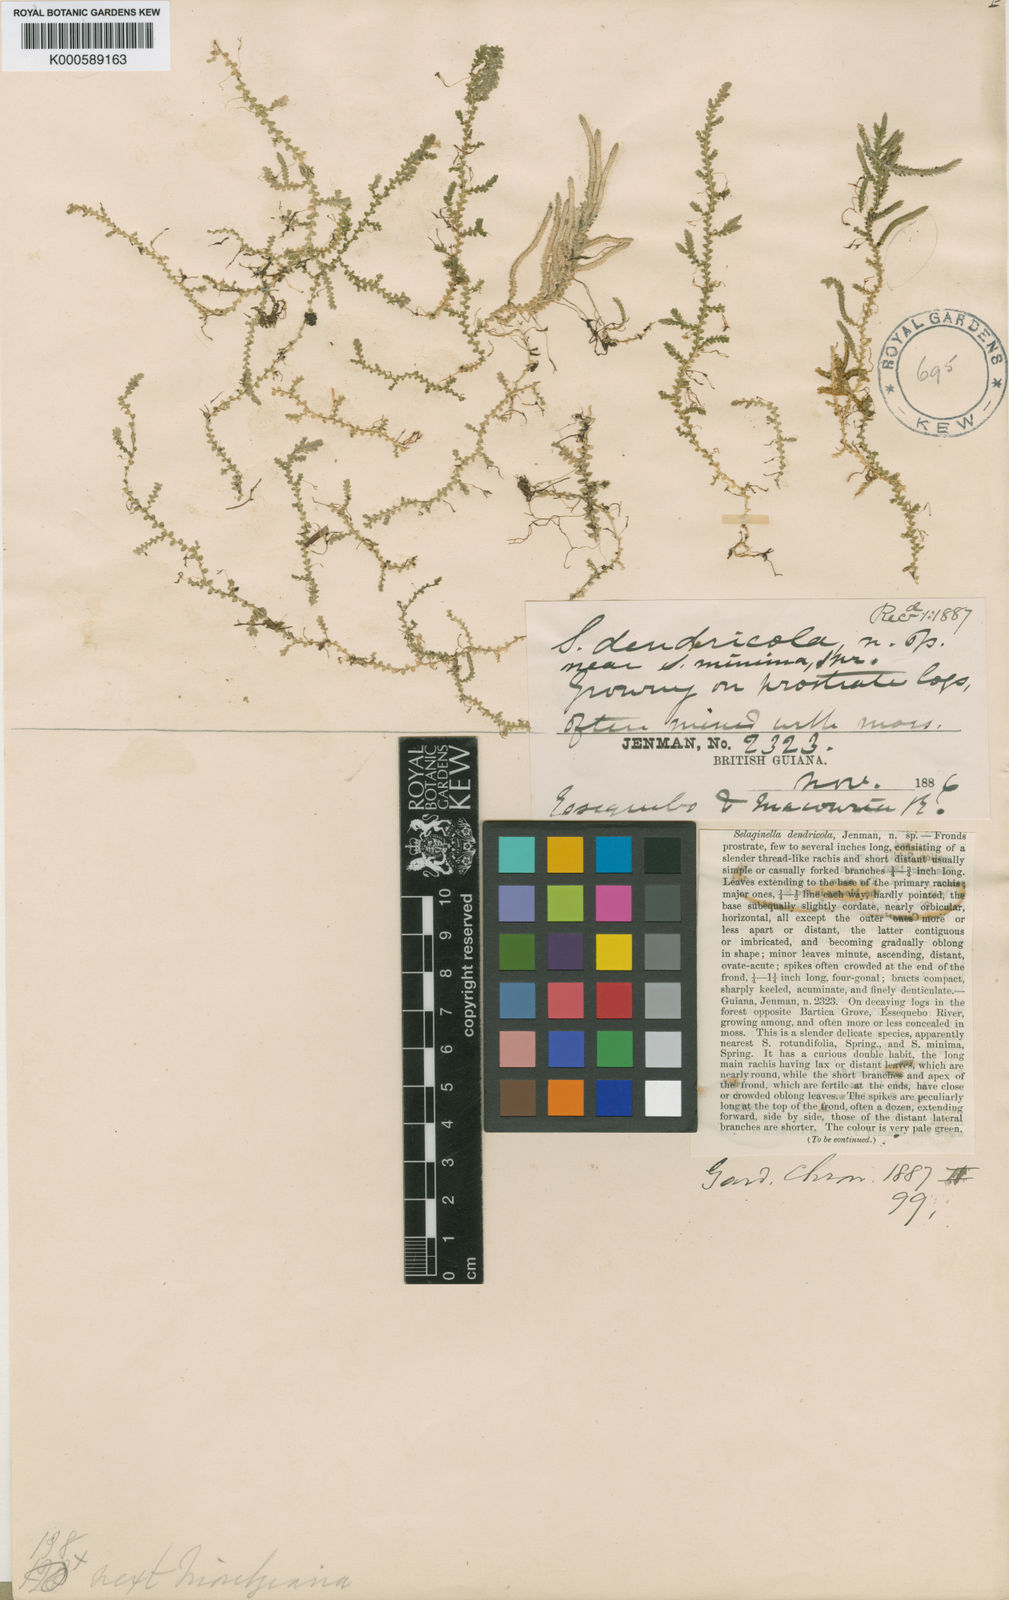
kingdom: Plantae
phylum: Tracheophyta
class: Lycopodiopsida
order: Selaginellales
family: Selaginellaceae
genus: Selaginella
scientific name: Selaginella dendricola
